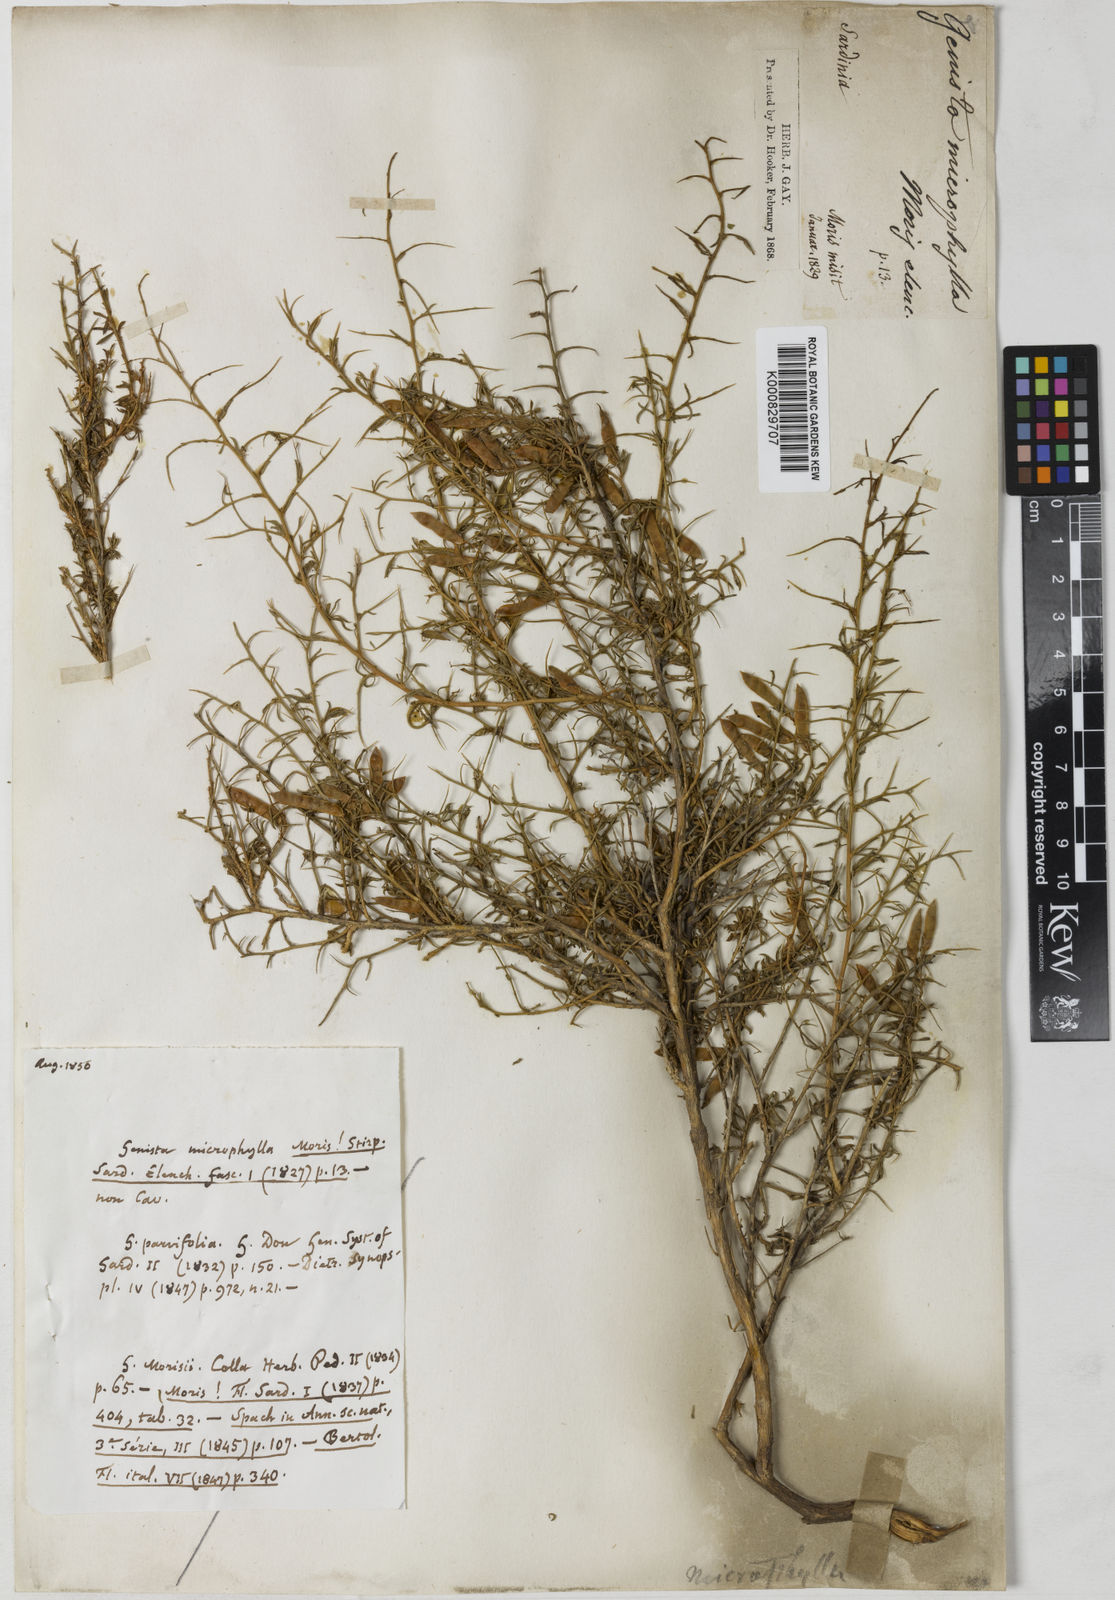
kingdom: Plantae
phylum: Tracheophyta
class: Magnoliopsida
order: Fabales
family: Fabaceae
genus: Genista
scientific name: Genista morisii
